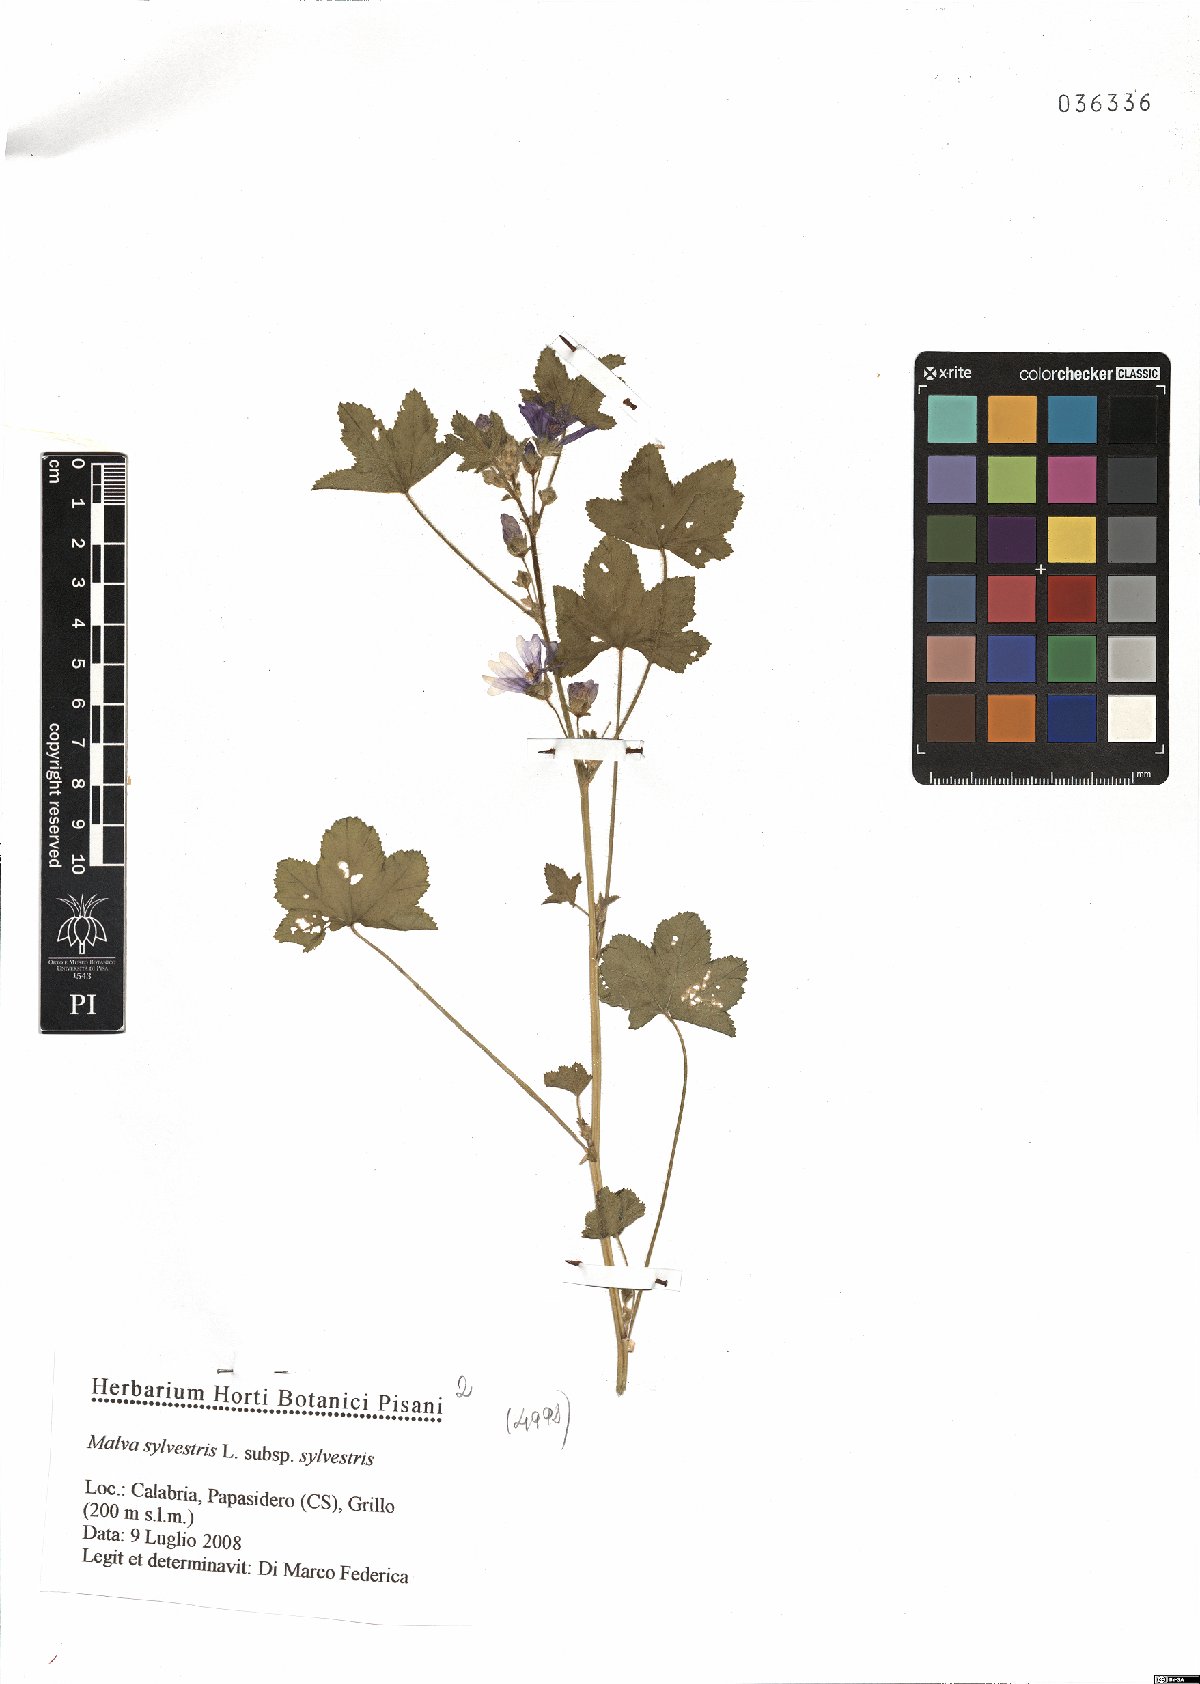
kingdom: Plantae
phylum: Tracheophyta
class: Magnoliopsida
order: Malvales
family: Malvaceae
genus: Malva
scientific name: Malva sylvestris
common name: Common mallow
